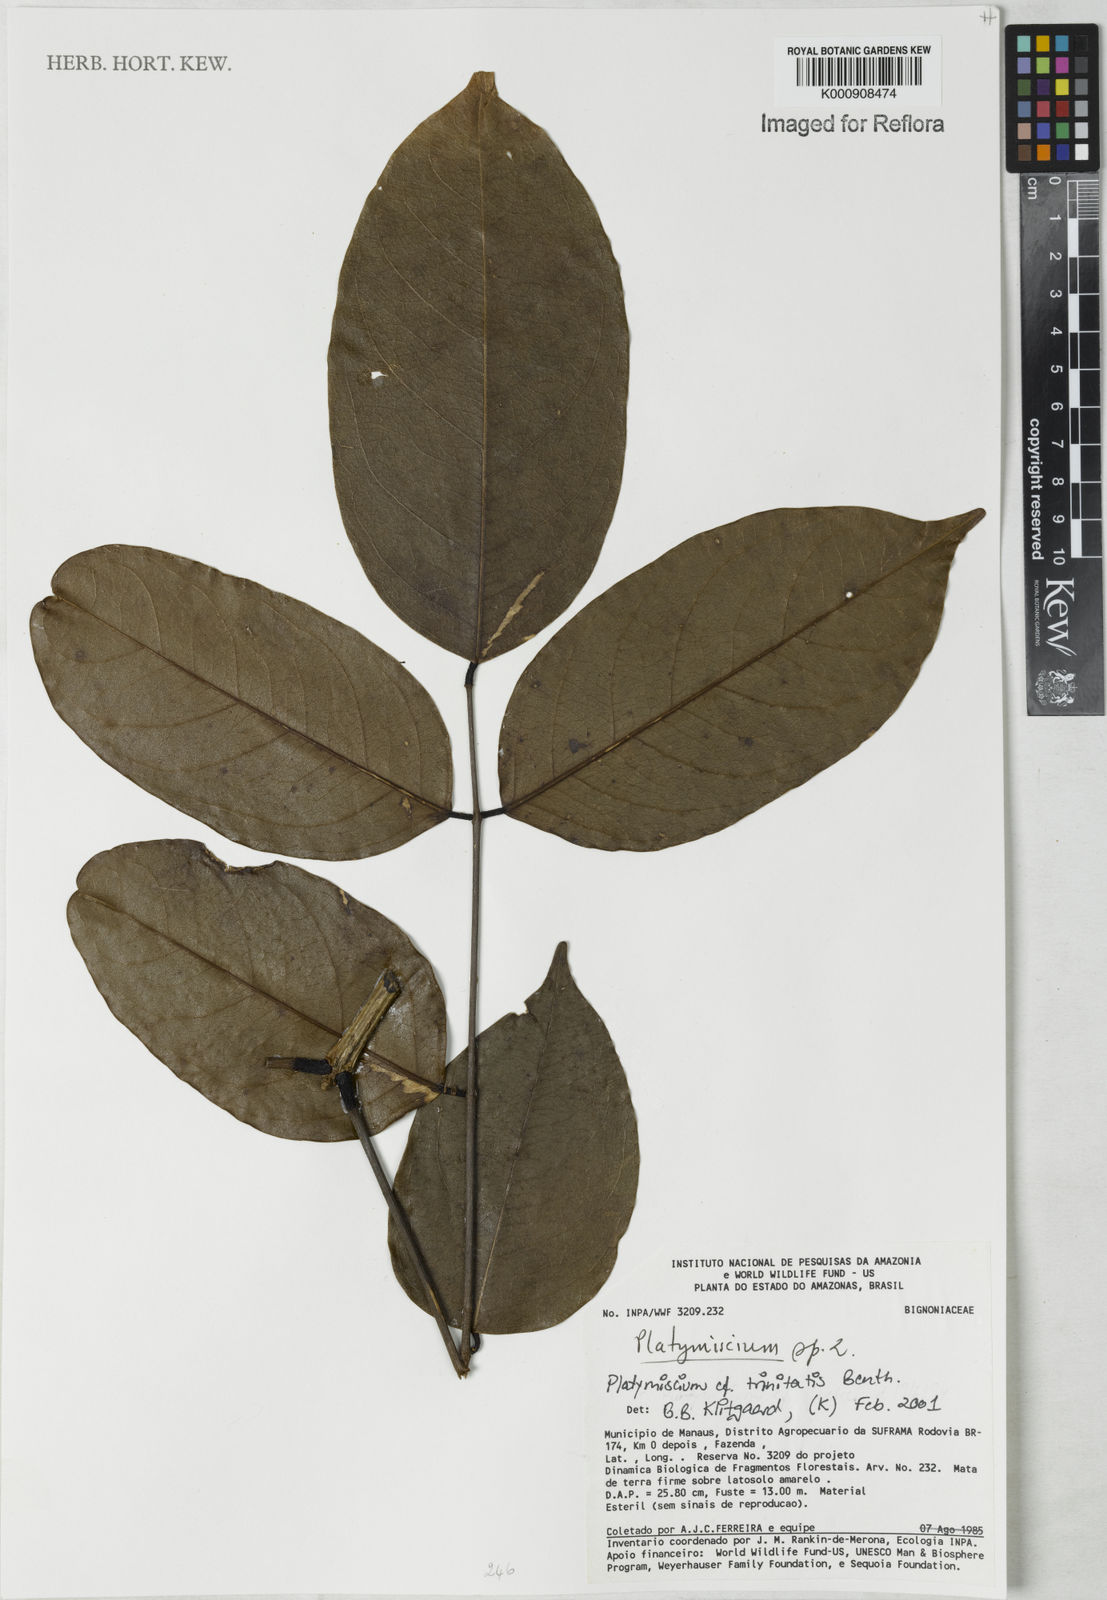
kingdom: Plantae
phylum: Tracheophyta
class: Magnoliopsida
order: Fabales
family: Fabaceae
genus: Platymiscium
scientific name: Platymiscium trinitatis
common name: Trinidad macawood
